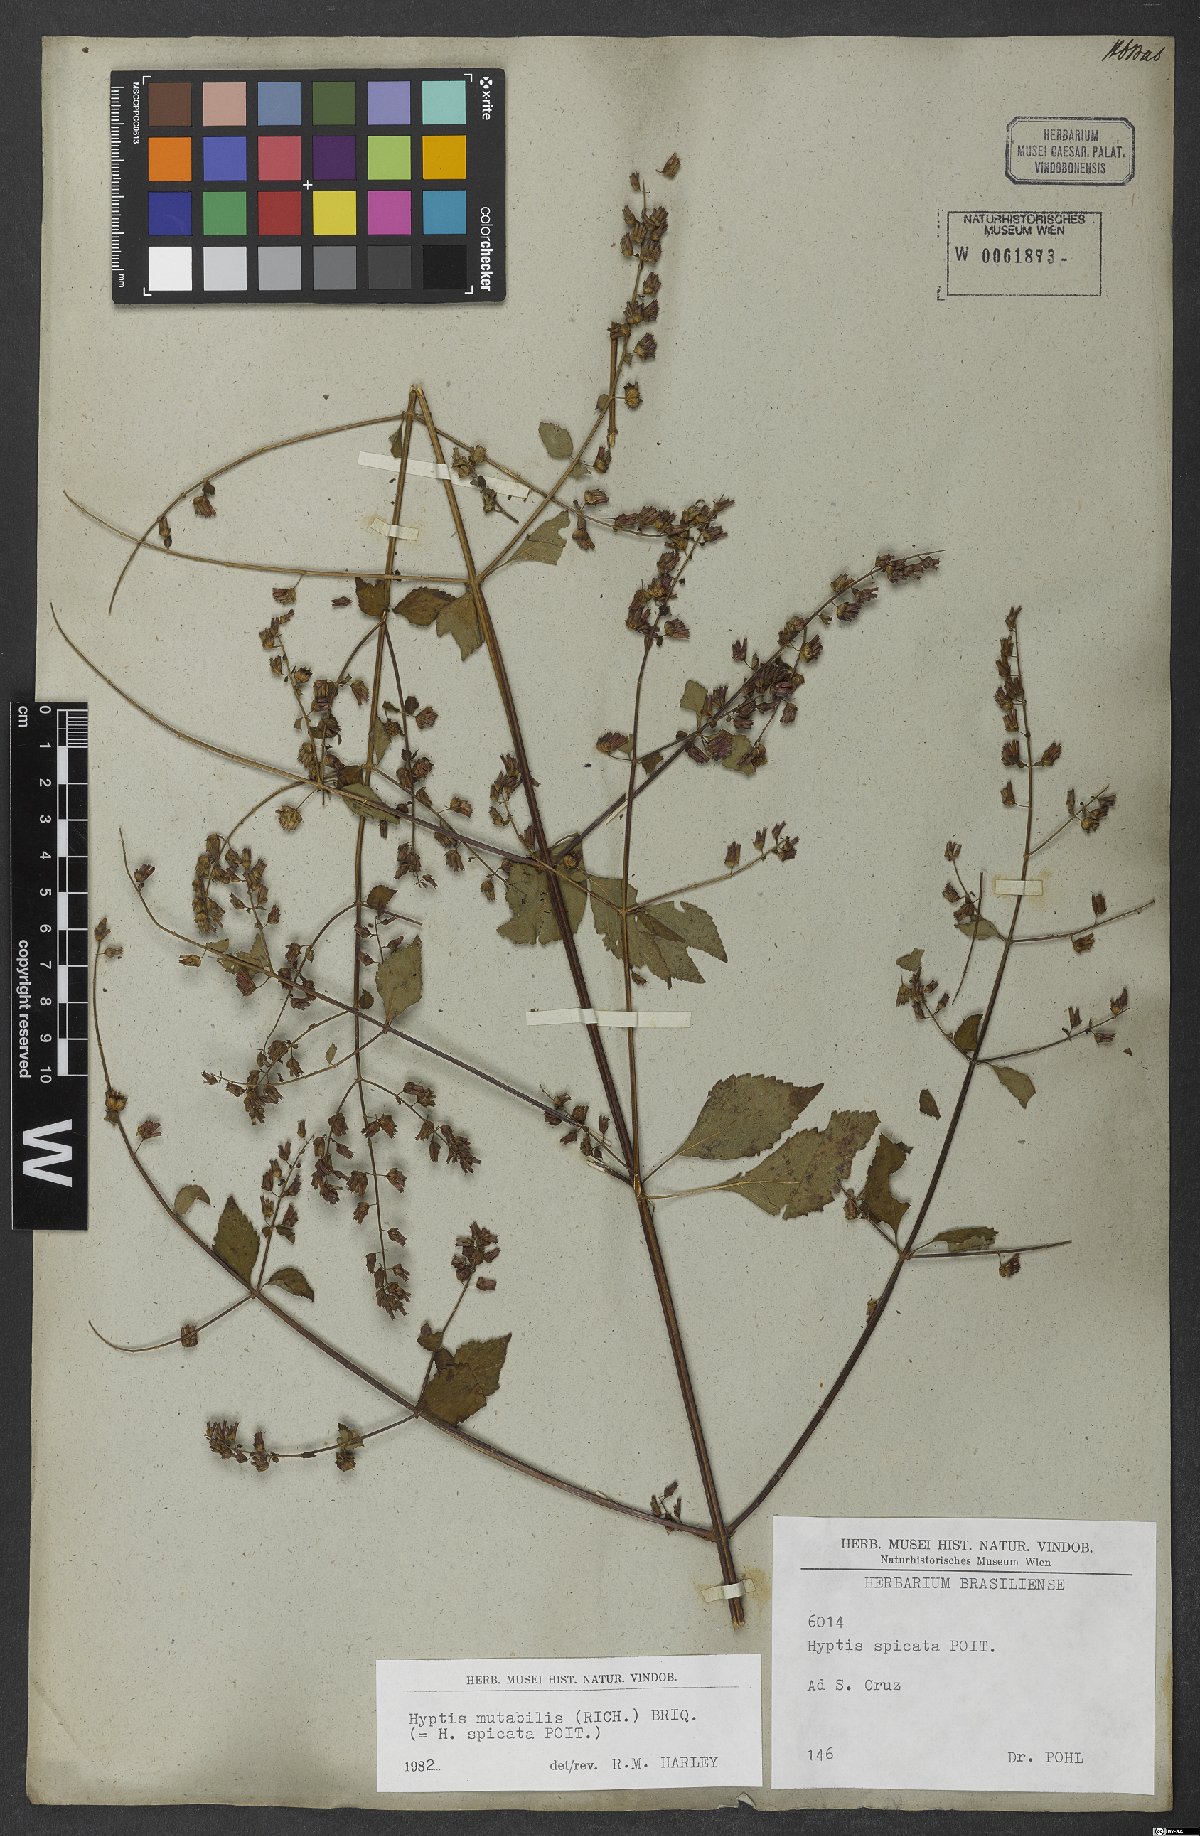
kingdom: Plantae
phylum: Tracheophyta
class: Magnoliopsida
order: Lamiales
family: Lamiaceae
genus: Cantinoa
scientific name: Cantinoa mutabilis
